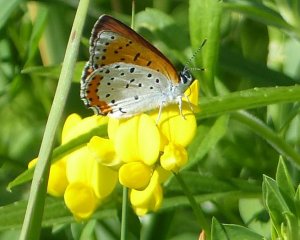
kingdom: Animalia
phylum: Arthropoda
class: Insecta
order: Lepidoptera
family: Sesiidae
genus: Sesia
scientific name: Sesia Lycaena hyllus
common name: Bronze Copper
